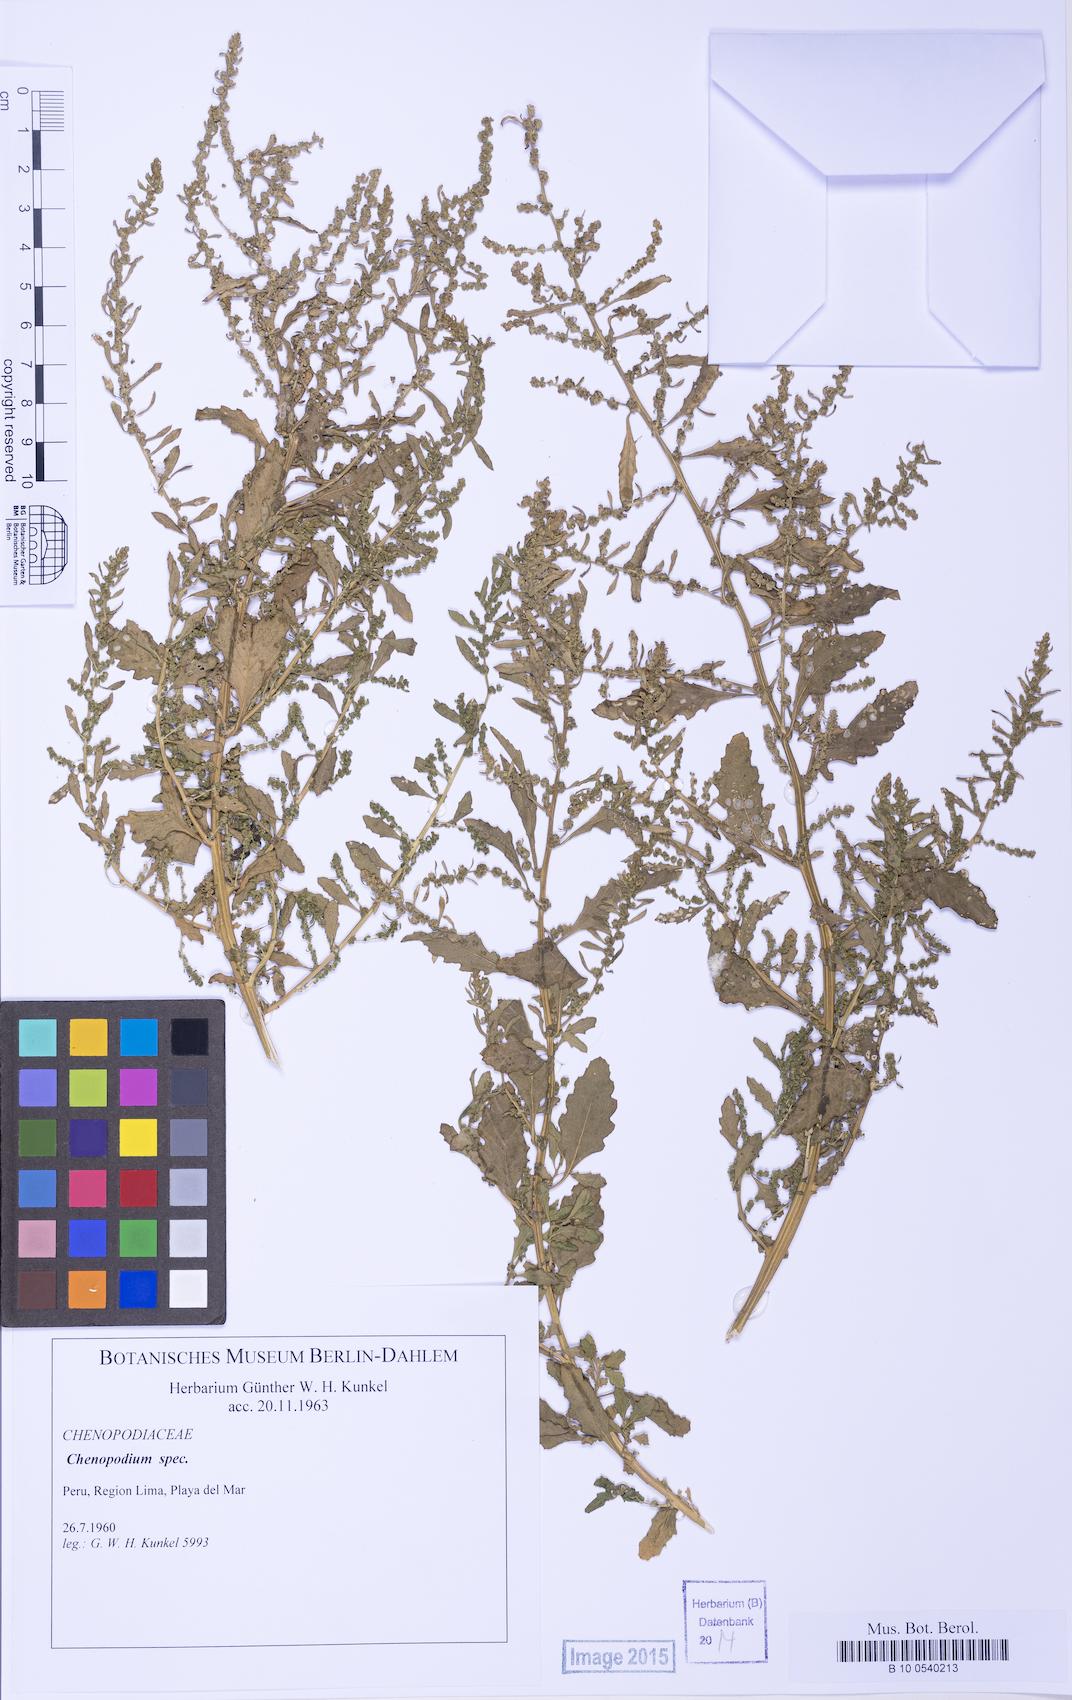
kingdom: Plantae
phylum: Tracheophyta
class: Magnoliopsida
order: Caryophyllales
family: Amaranthaceae
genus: Chenopodium
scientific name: Chenopodium
